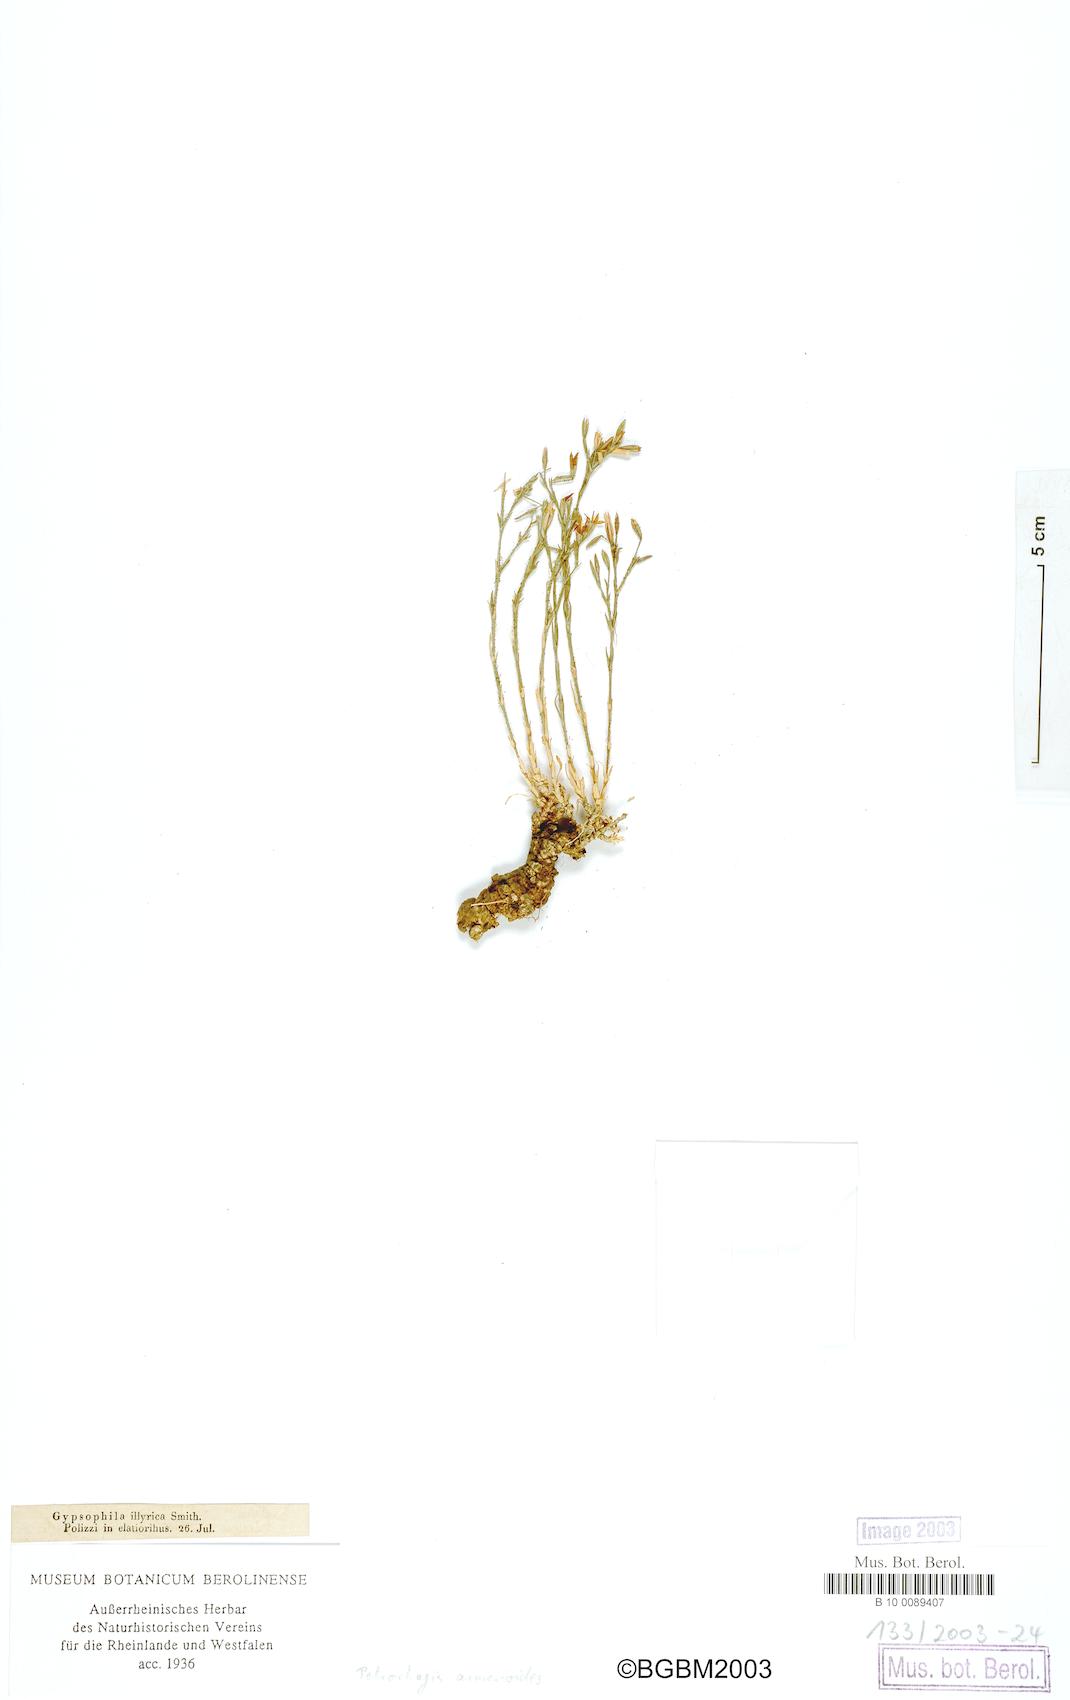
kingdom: Plantae
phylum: Tracheophyta
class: Magnoliopsida
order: Caryophyllales
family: Caryophyllaceae
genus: Dianthus
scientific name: Dianthus tunicoides
